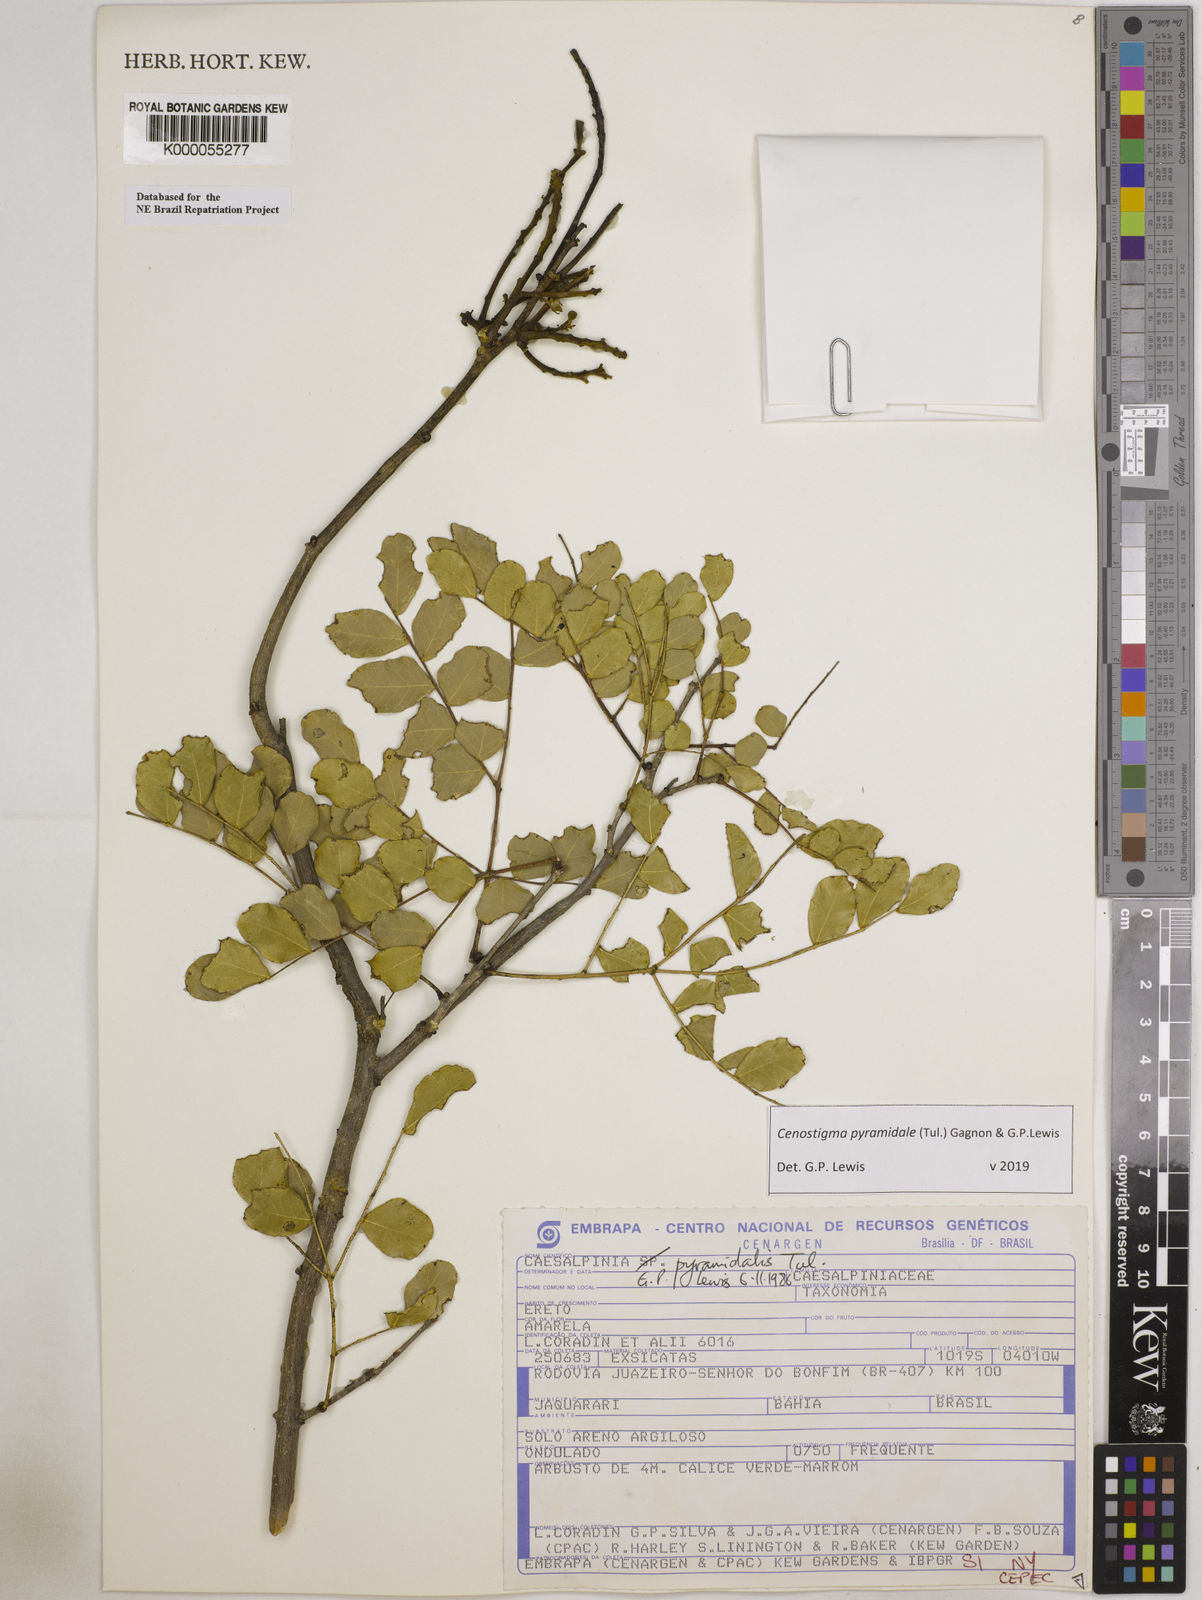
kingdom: Plantae
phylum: Tracheophyta
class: Magnoliopsida
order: Fabales
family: Fabaceae
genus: Cenostigma
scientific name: Cenostigma pyramidale
